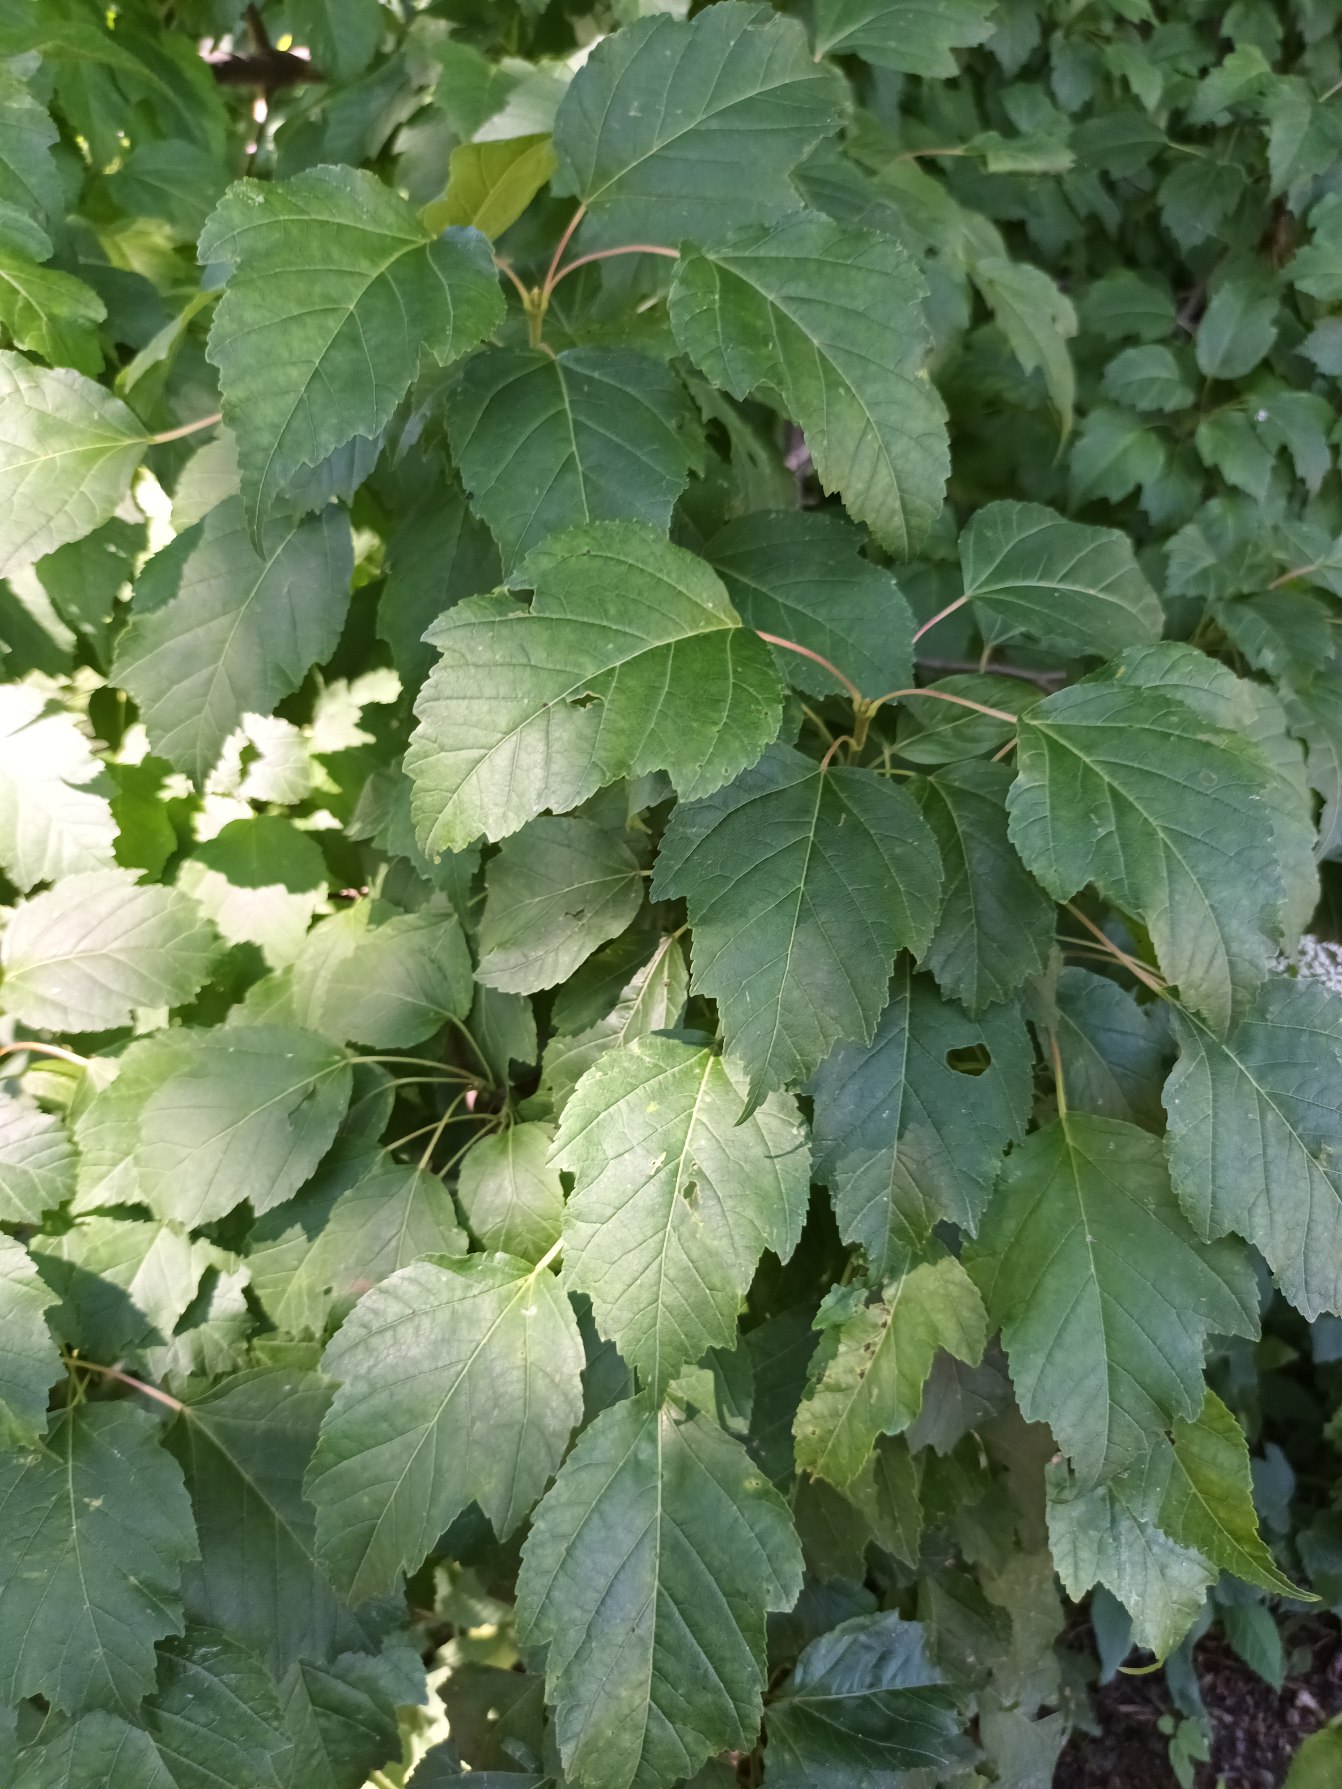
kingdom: Plantae
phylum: Tracheophyta
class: Magnoliopsida
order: Sapindales
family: Sapindaceae
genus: Acer
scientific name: Acer tataricum
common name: Ild-løn
